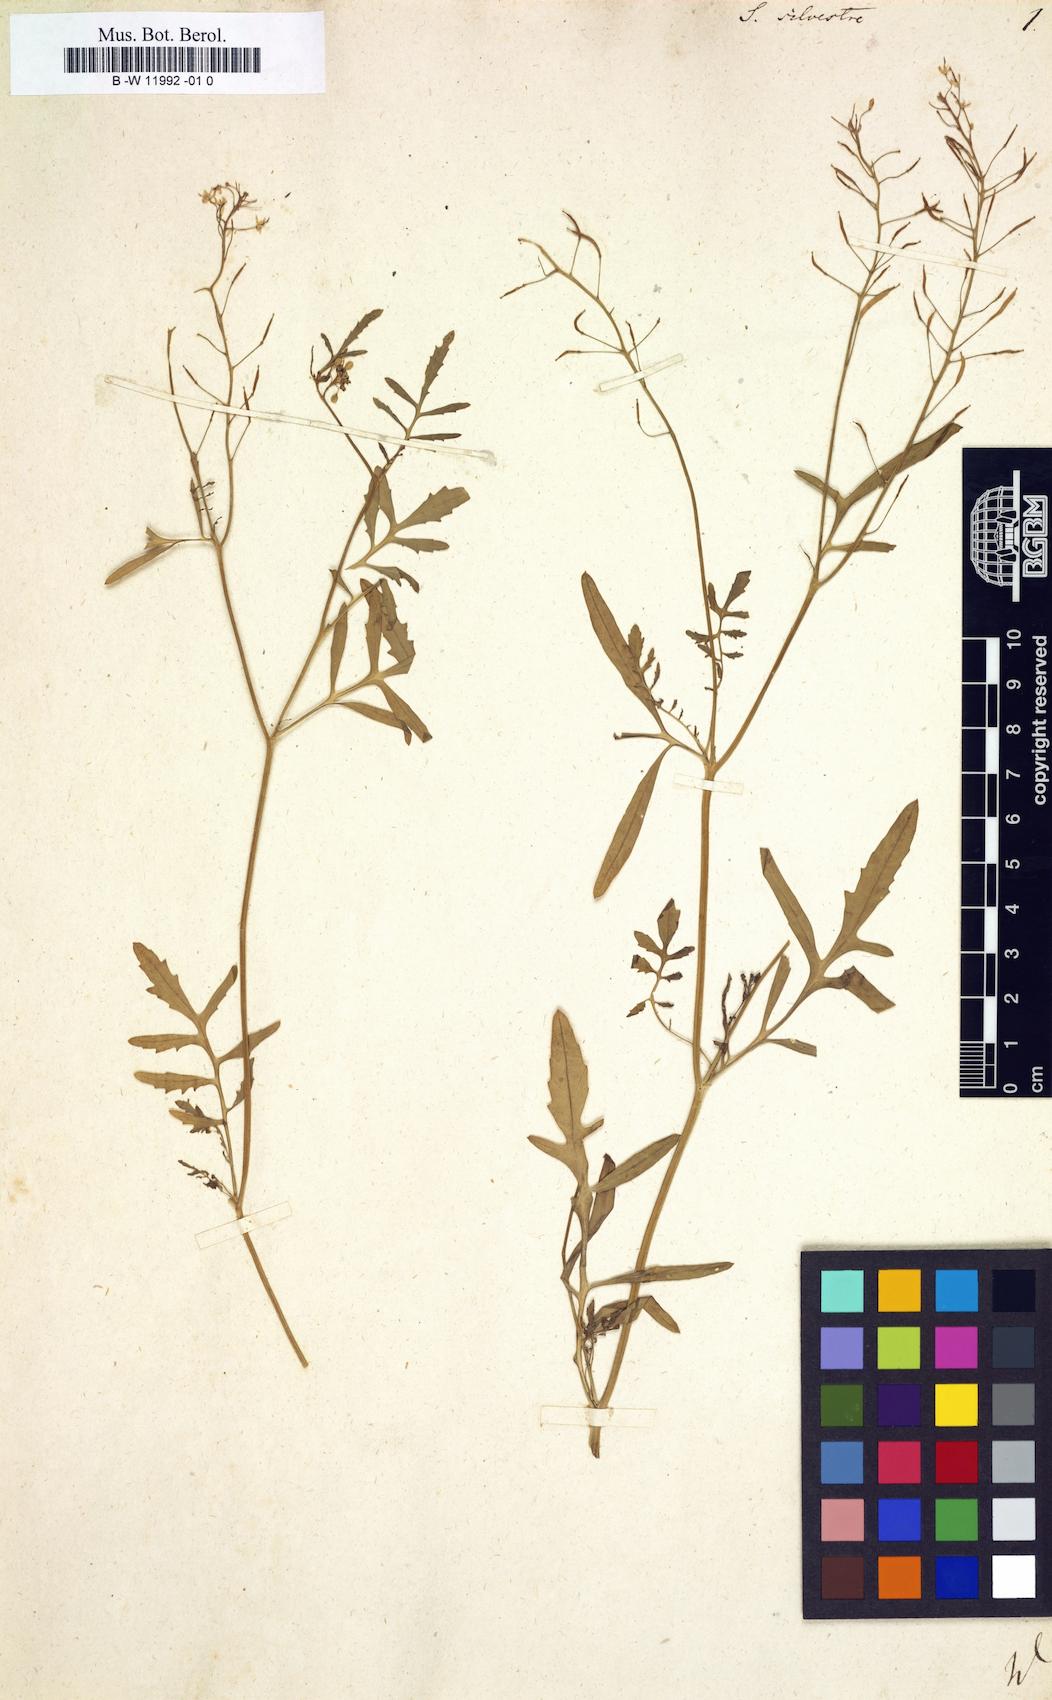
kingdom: Plantae
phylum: Tracheophyta
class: Magnoliopsida
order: Brassicales
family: Brassicaceae
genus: Rorippa
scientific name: Rorippa sylvestris
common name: Creeping yellowcress
